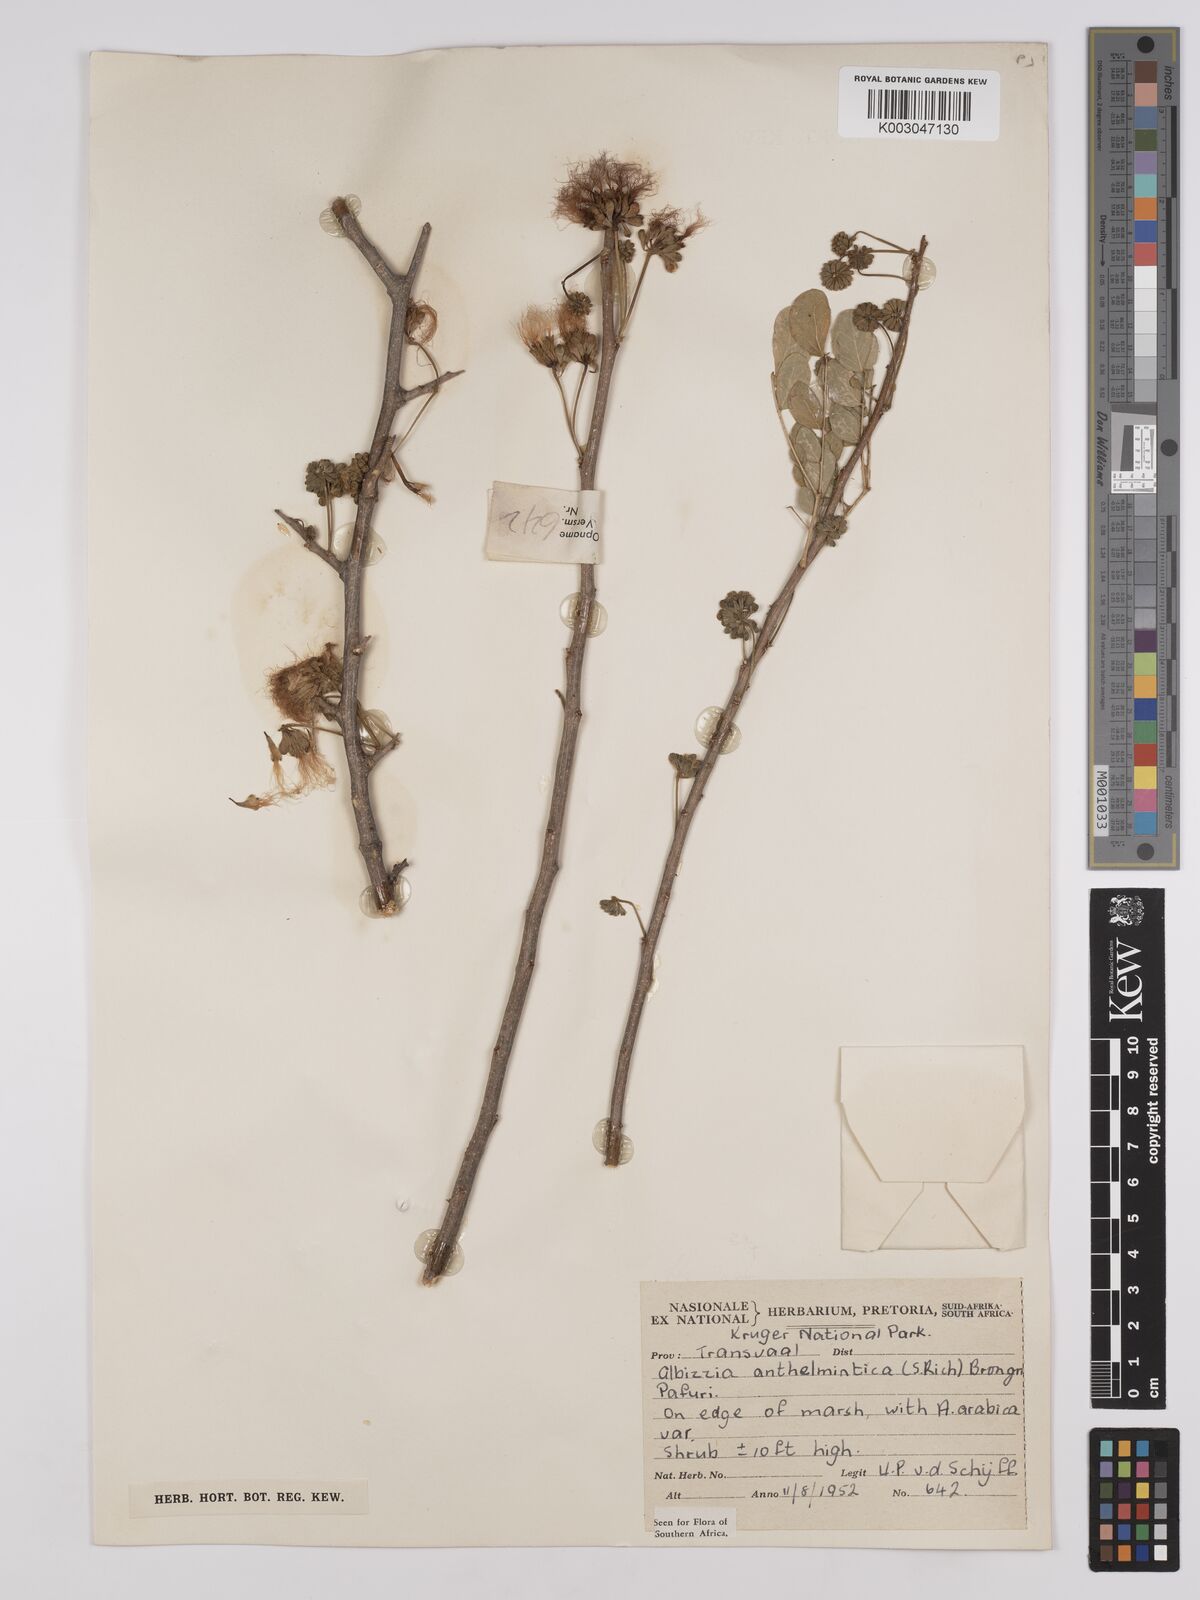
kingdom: Plantae
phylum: Tracheophyta
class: Magnoliopsida
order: Fabales
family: Fabaceae
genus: Albizia
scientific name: Albizia anthelmintica
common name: Worm-bark false-thorn
